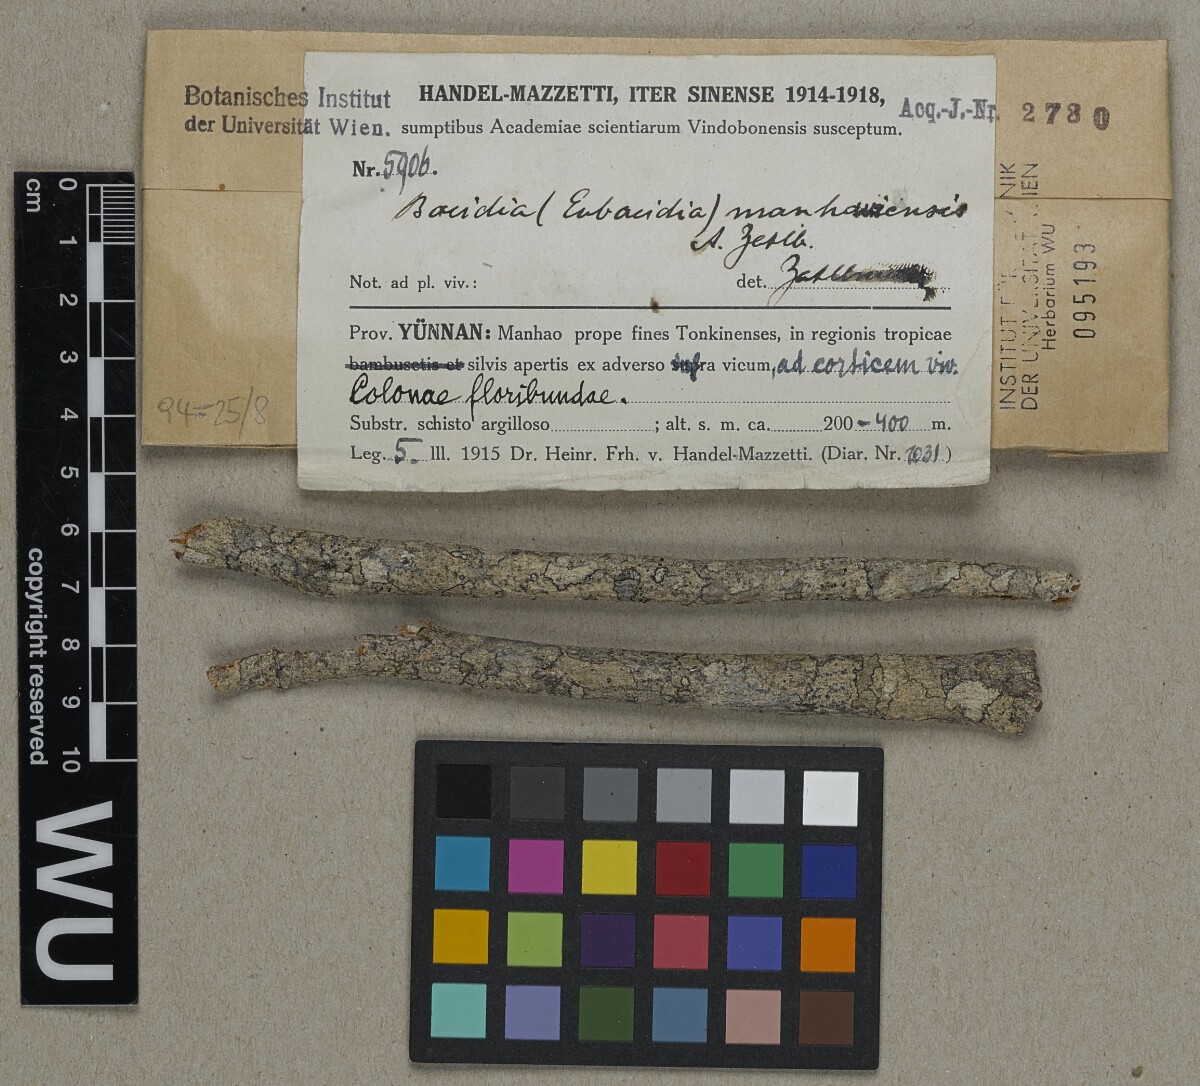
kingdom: Fungi
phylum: Ascomycota
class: Lecanoromycetes
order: Lecanorales
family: Ramalinaceae
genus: Bacidia
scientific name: Bacidia
